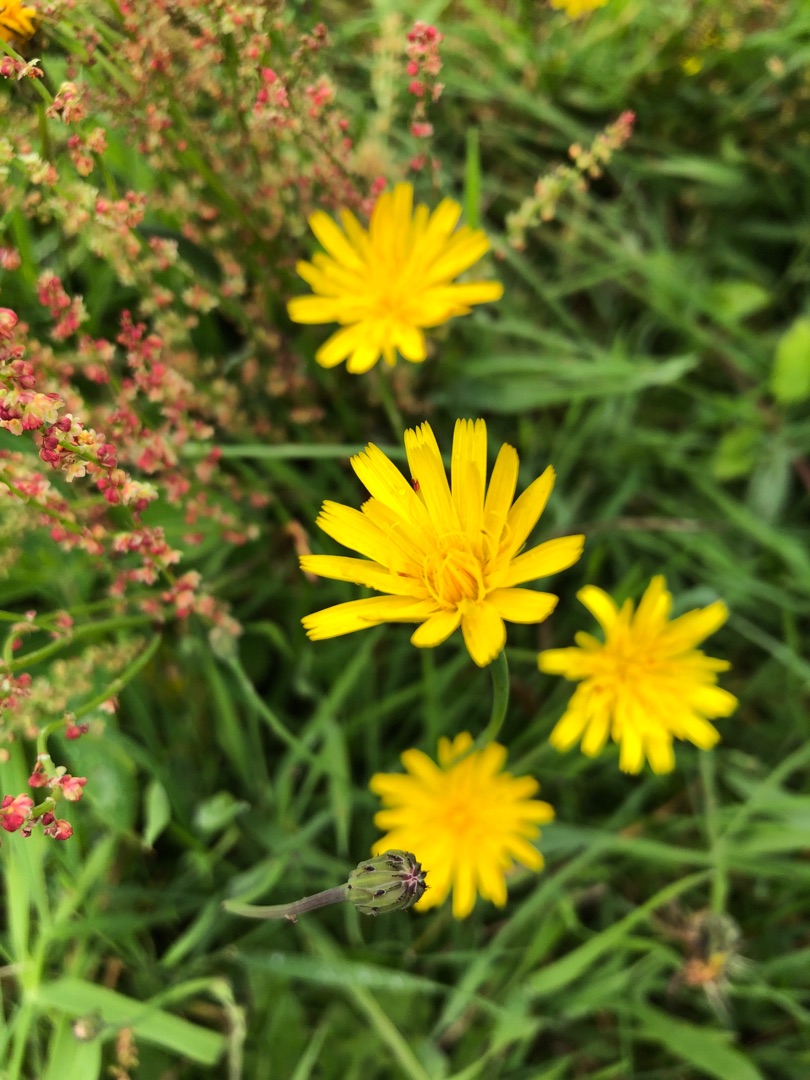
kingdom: Plantae
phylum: Tracheophyta
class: Magnoliopsida
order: Asterales
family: Asteraceae
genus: Hypochaeris
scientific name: Hypochaeris radicata
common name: Almindelig kongepen
